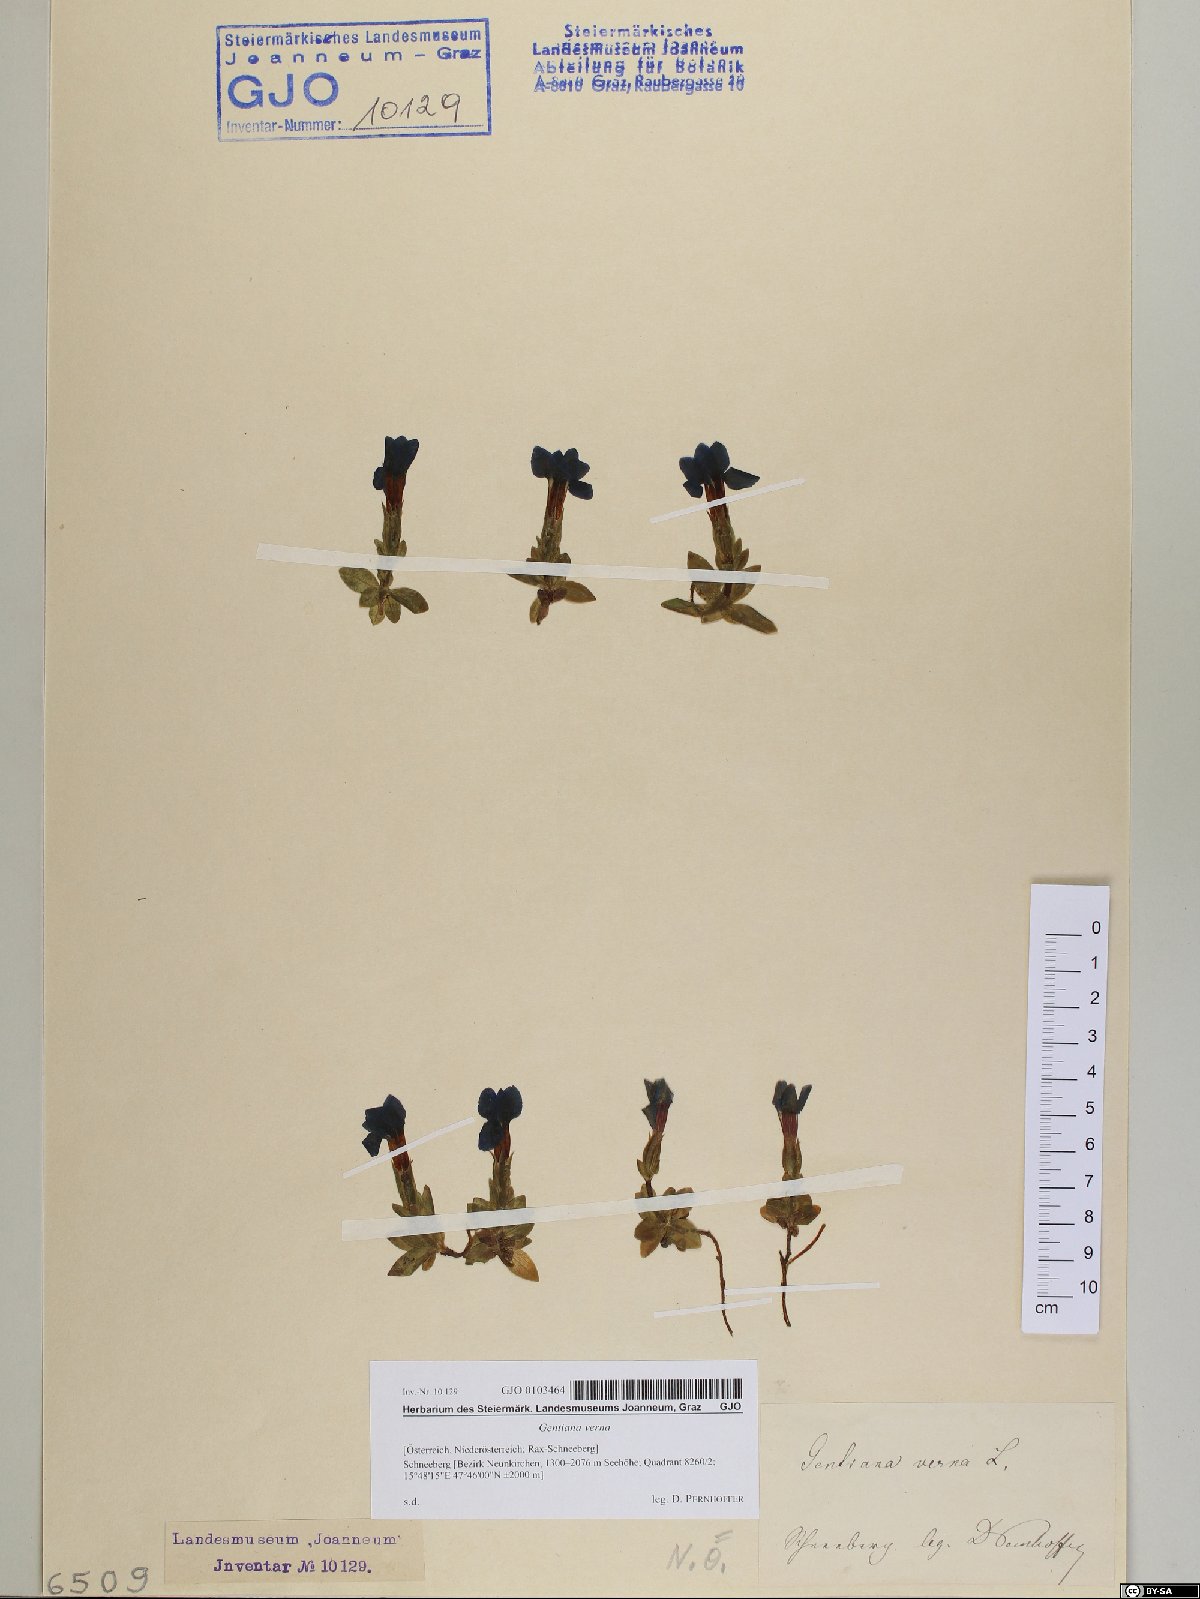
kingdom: Plantae
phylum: Tracheophyta
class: Magnoliopsida
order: Gentianales
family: Gentianaceae
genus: Gentiana
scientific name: Gentiana verna
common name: Spring gentian
